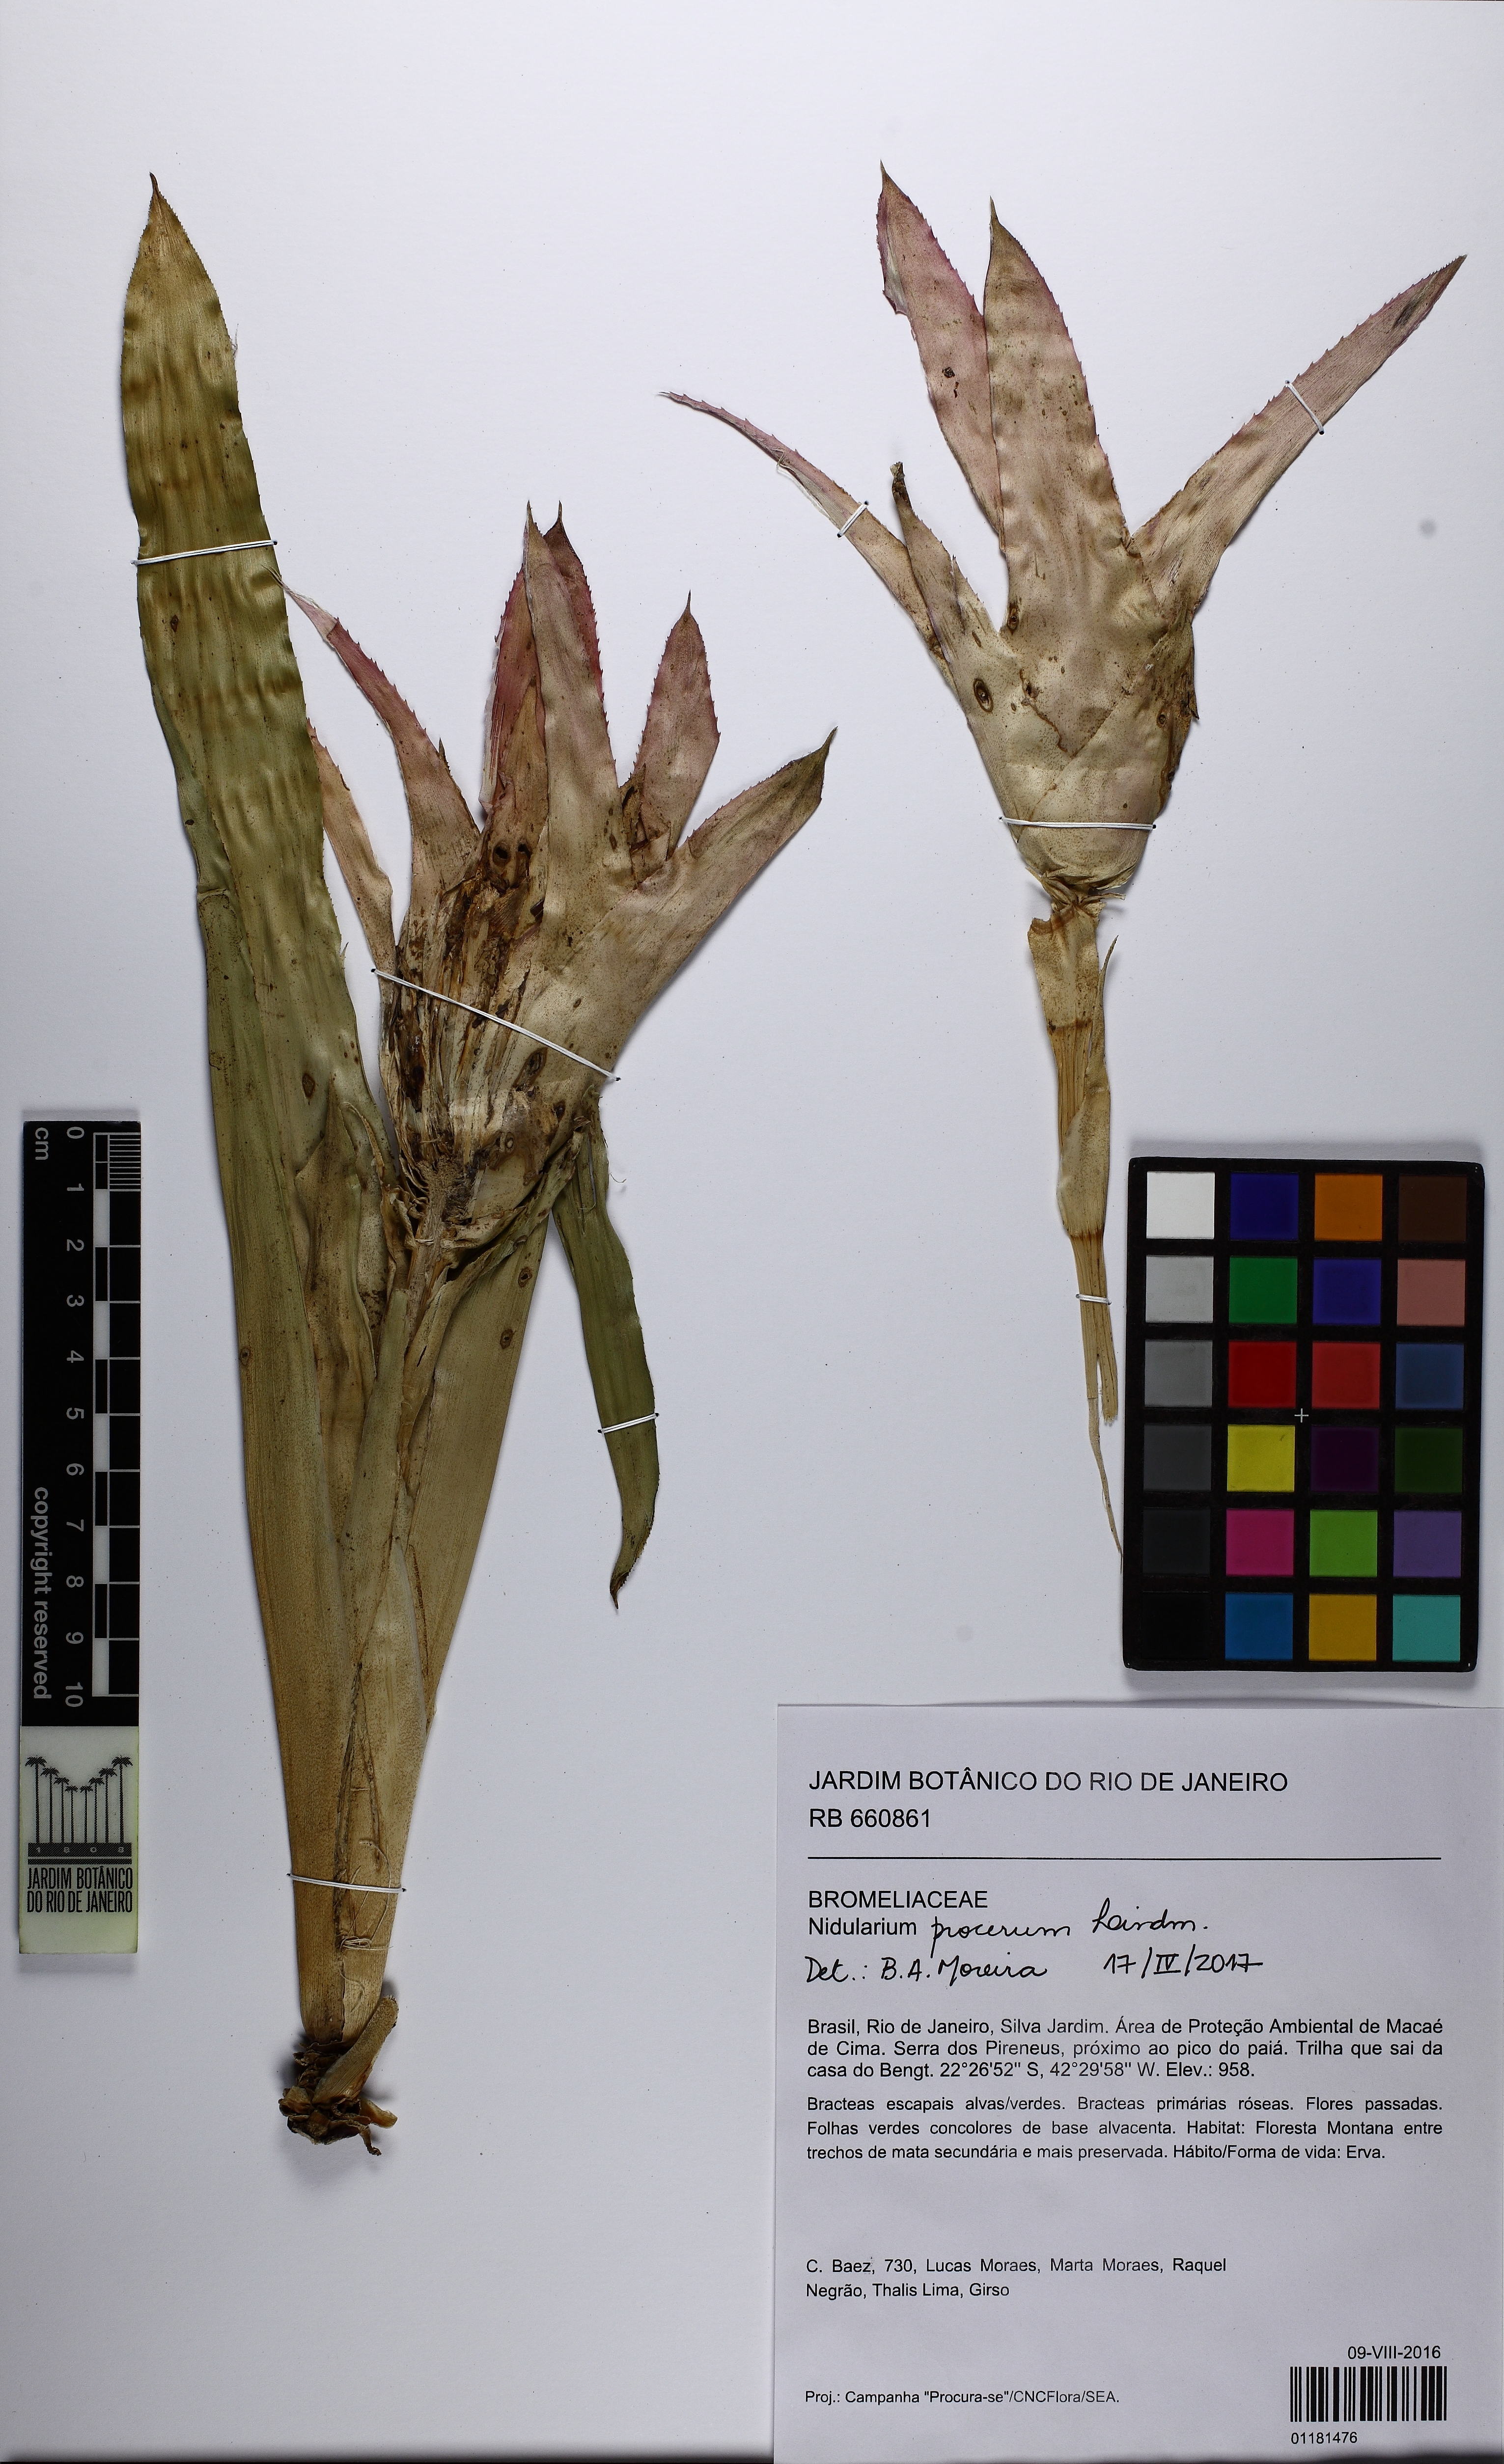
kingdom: Plantae
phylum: Tracheophyta
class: Liliopsida
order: Poales
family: Bromeliaceae
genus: Nidularium
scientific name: Nidularium procerum
